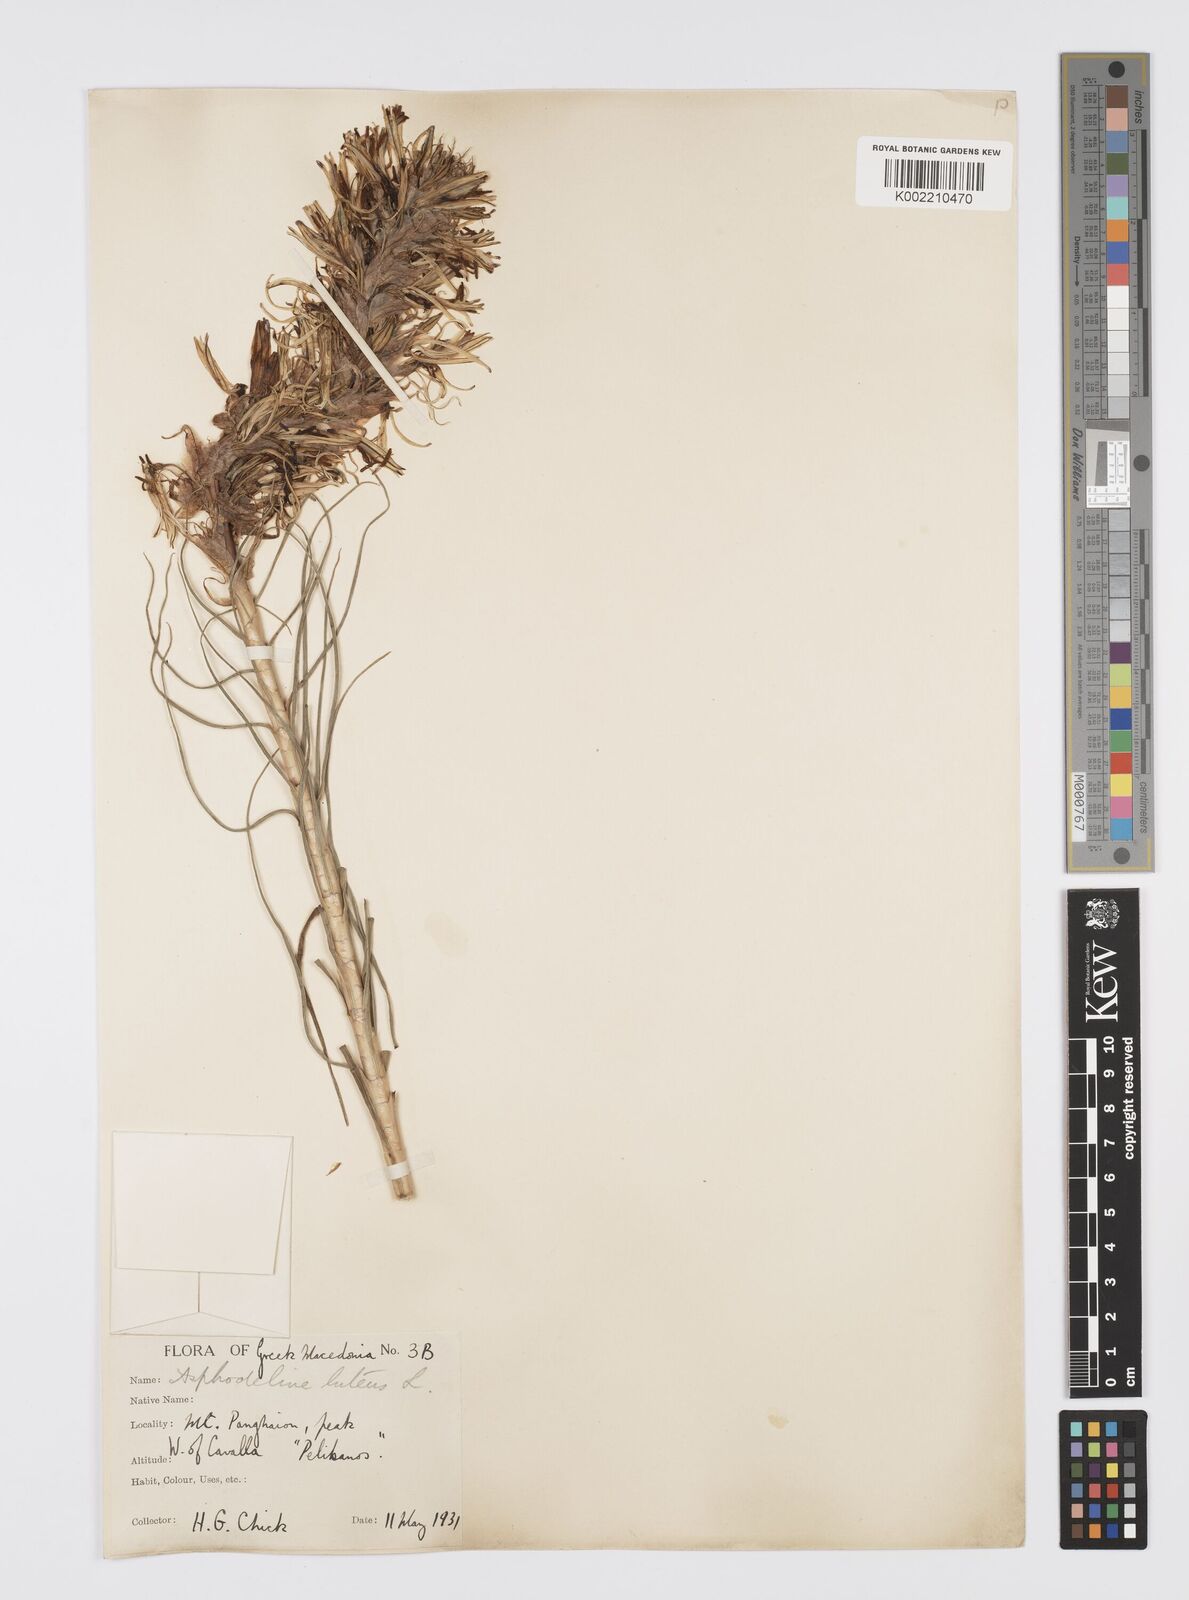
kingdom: Plantae
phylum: Tracheophyta
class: Liliopsida
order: Asparagales
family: Asphodelaceae
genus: Asphodeline
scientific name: Asphodeline lutea
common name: Yellow asphodel
